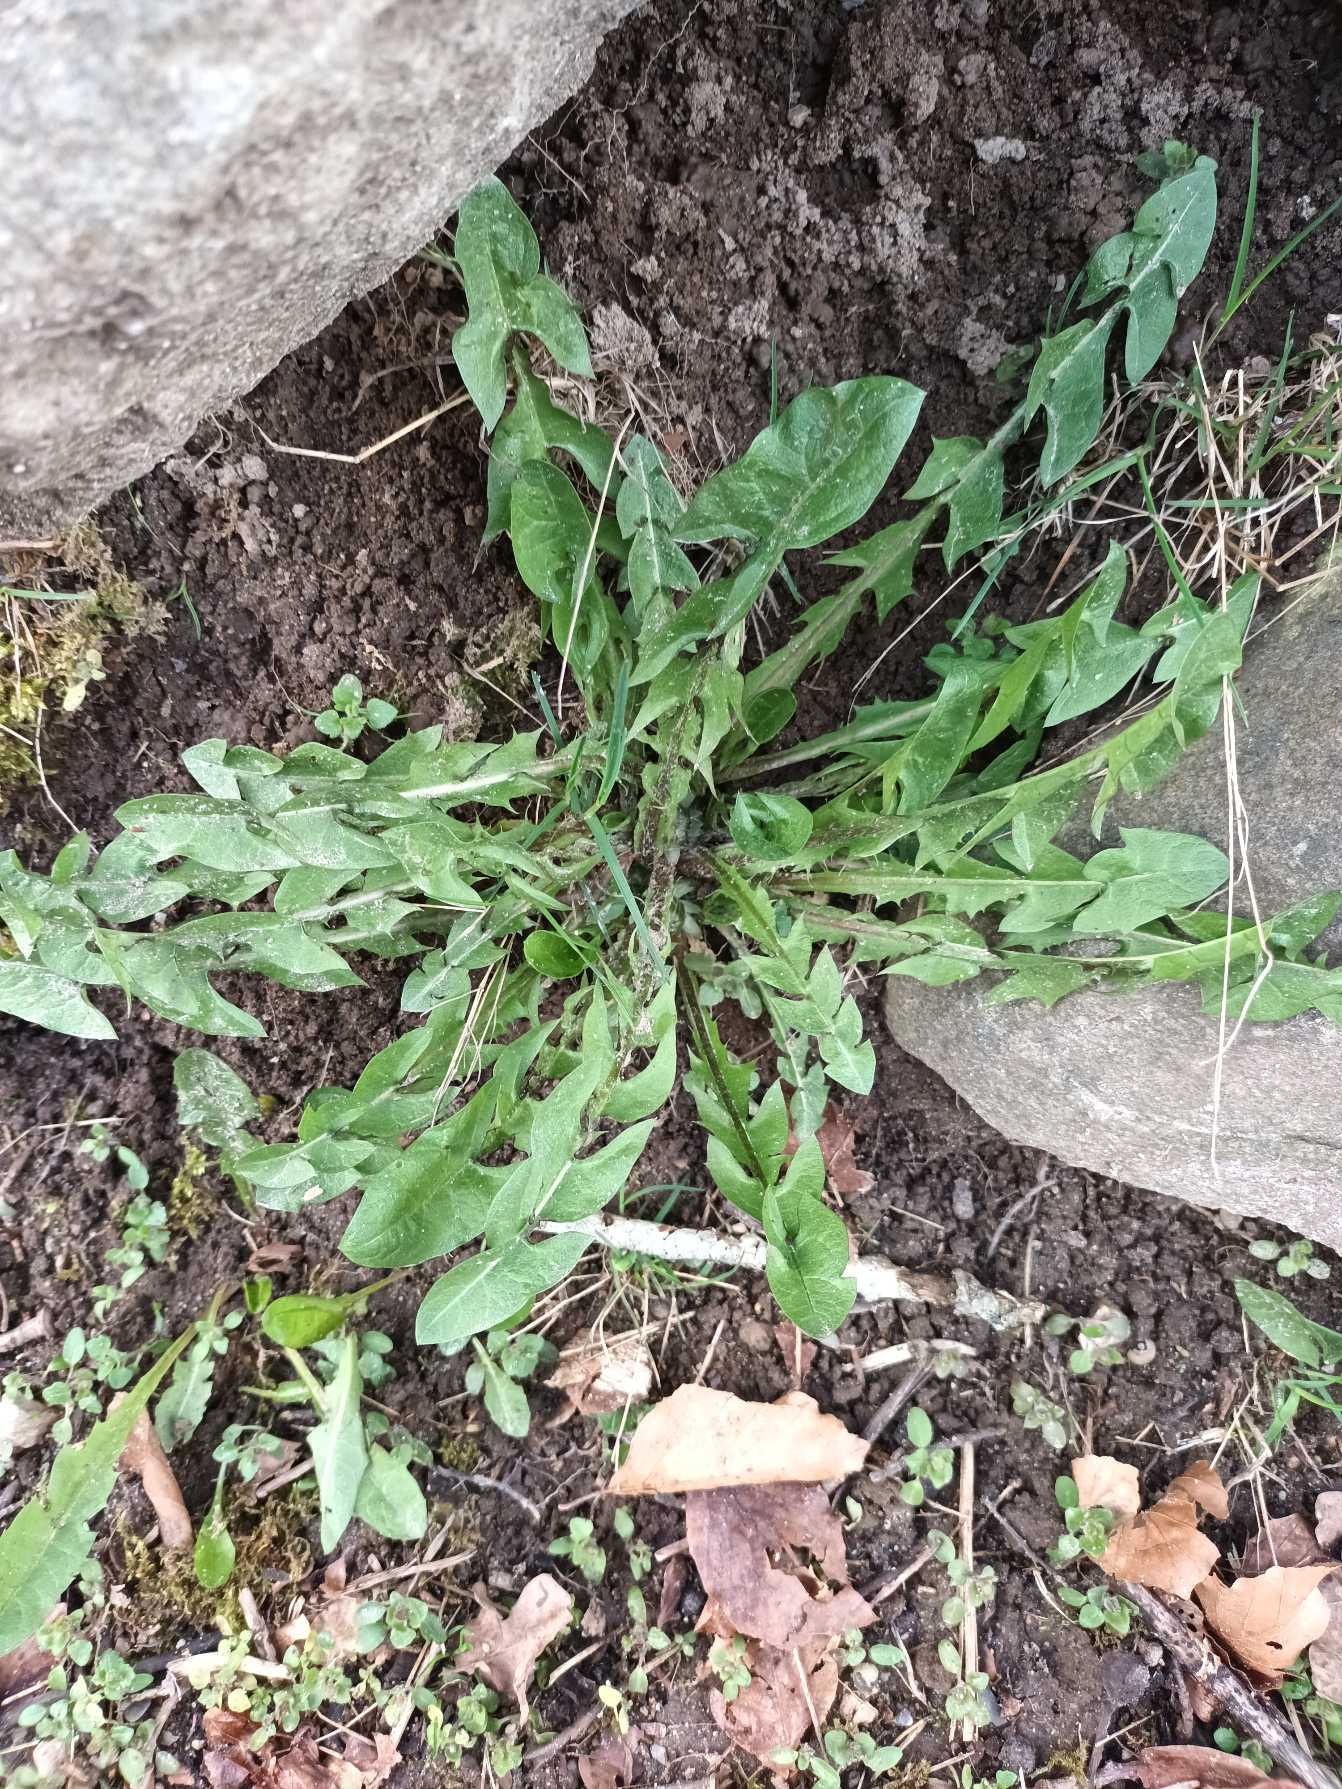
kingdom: Plantae
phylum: Tracheophyta
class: Magnoliopsida
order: Asterales
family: Asteraceae
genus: Taraxacum
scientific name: Taraxacum
